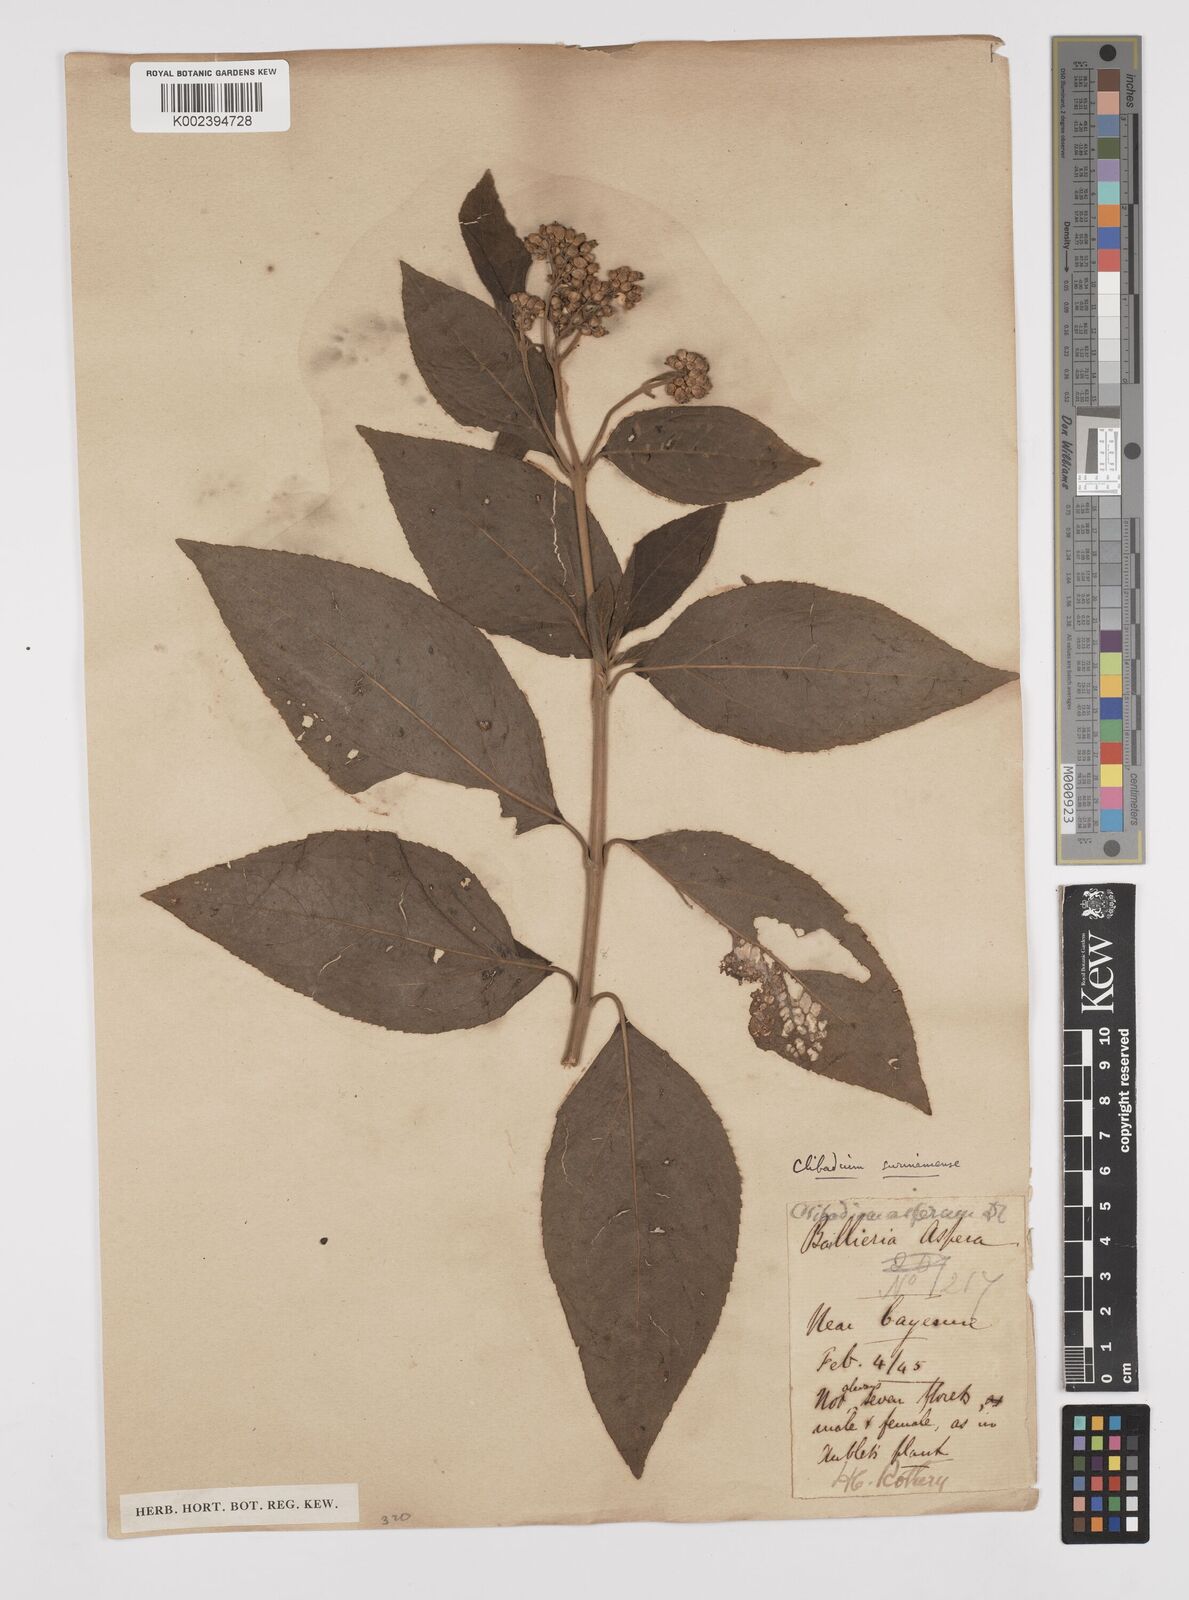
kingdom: Plantae
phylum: Tracheophyta
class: Magnoliopsida
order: Asterales
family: Asteraceae
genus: Clibadium
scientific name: Clibadium surinamense
